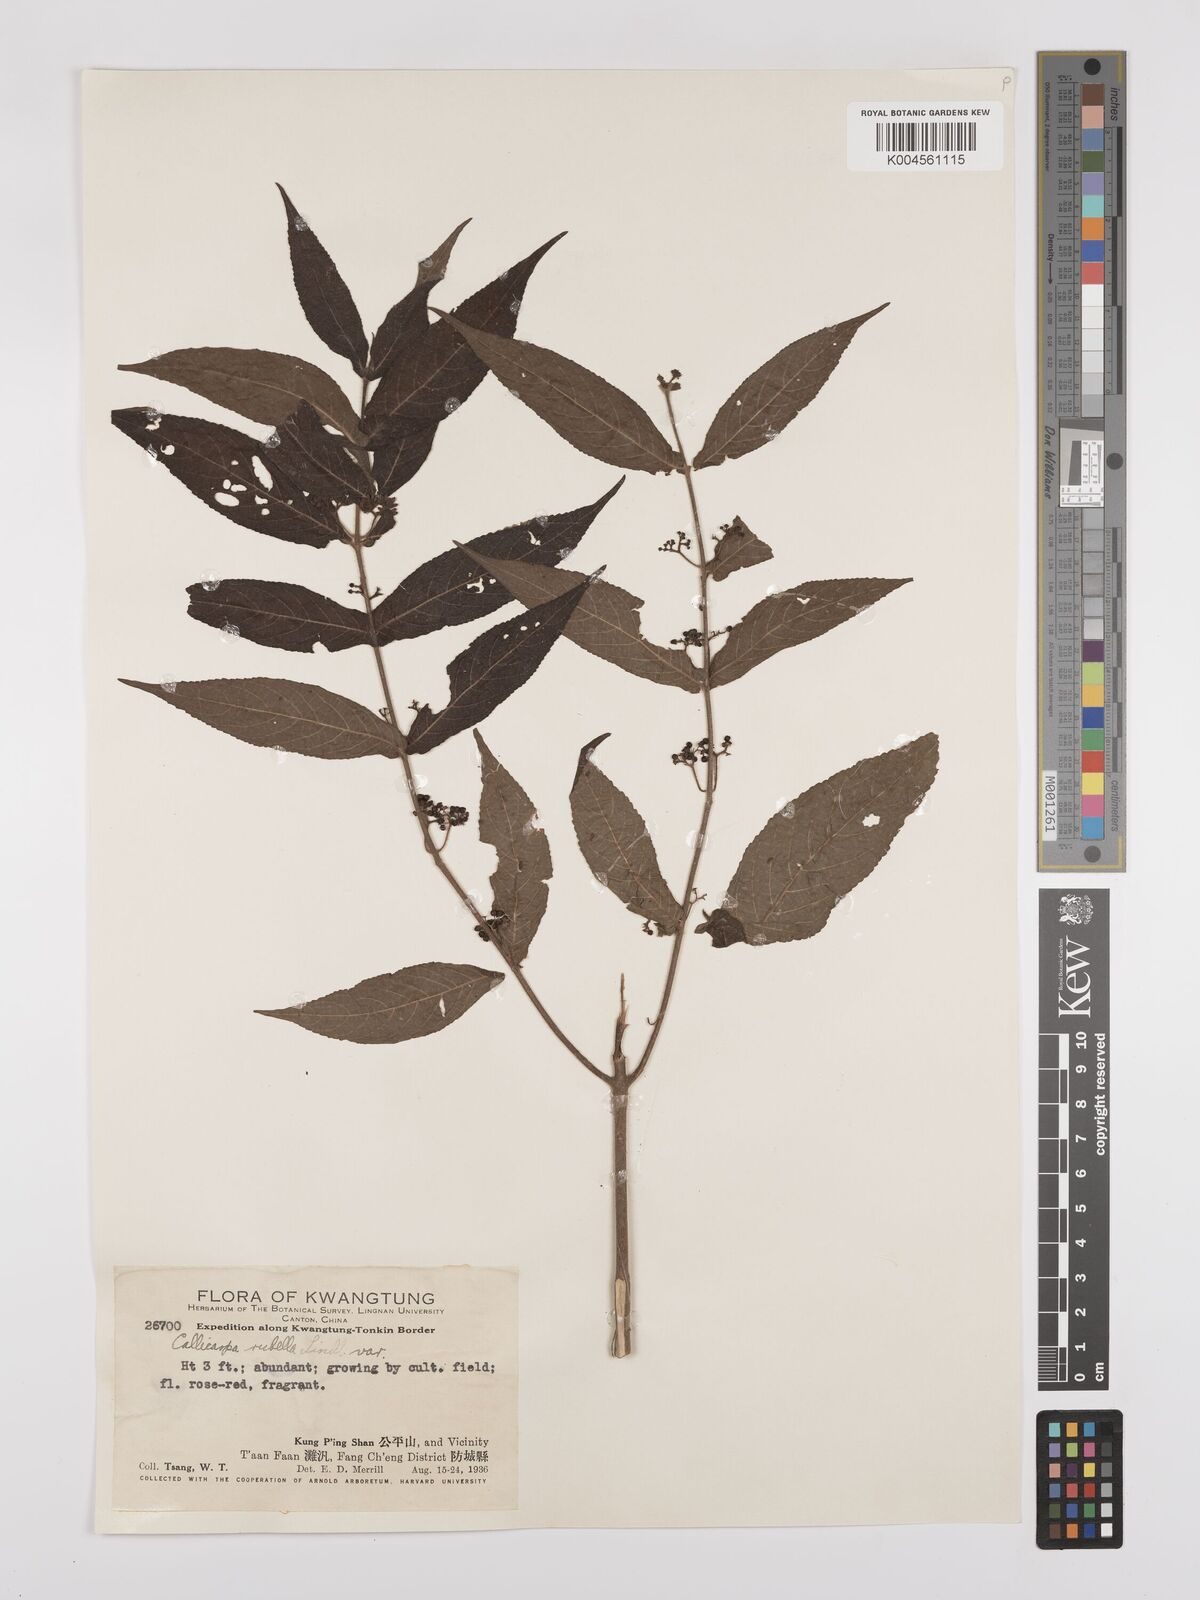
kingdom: Plantae
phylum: Tracheophyta
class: Magnoliopsida
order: Lamiales
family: Lamiaceae
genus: Callicarpa
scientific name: Callicarpa rubella
